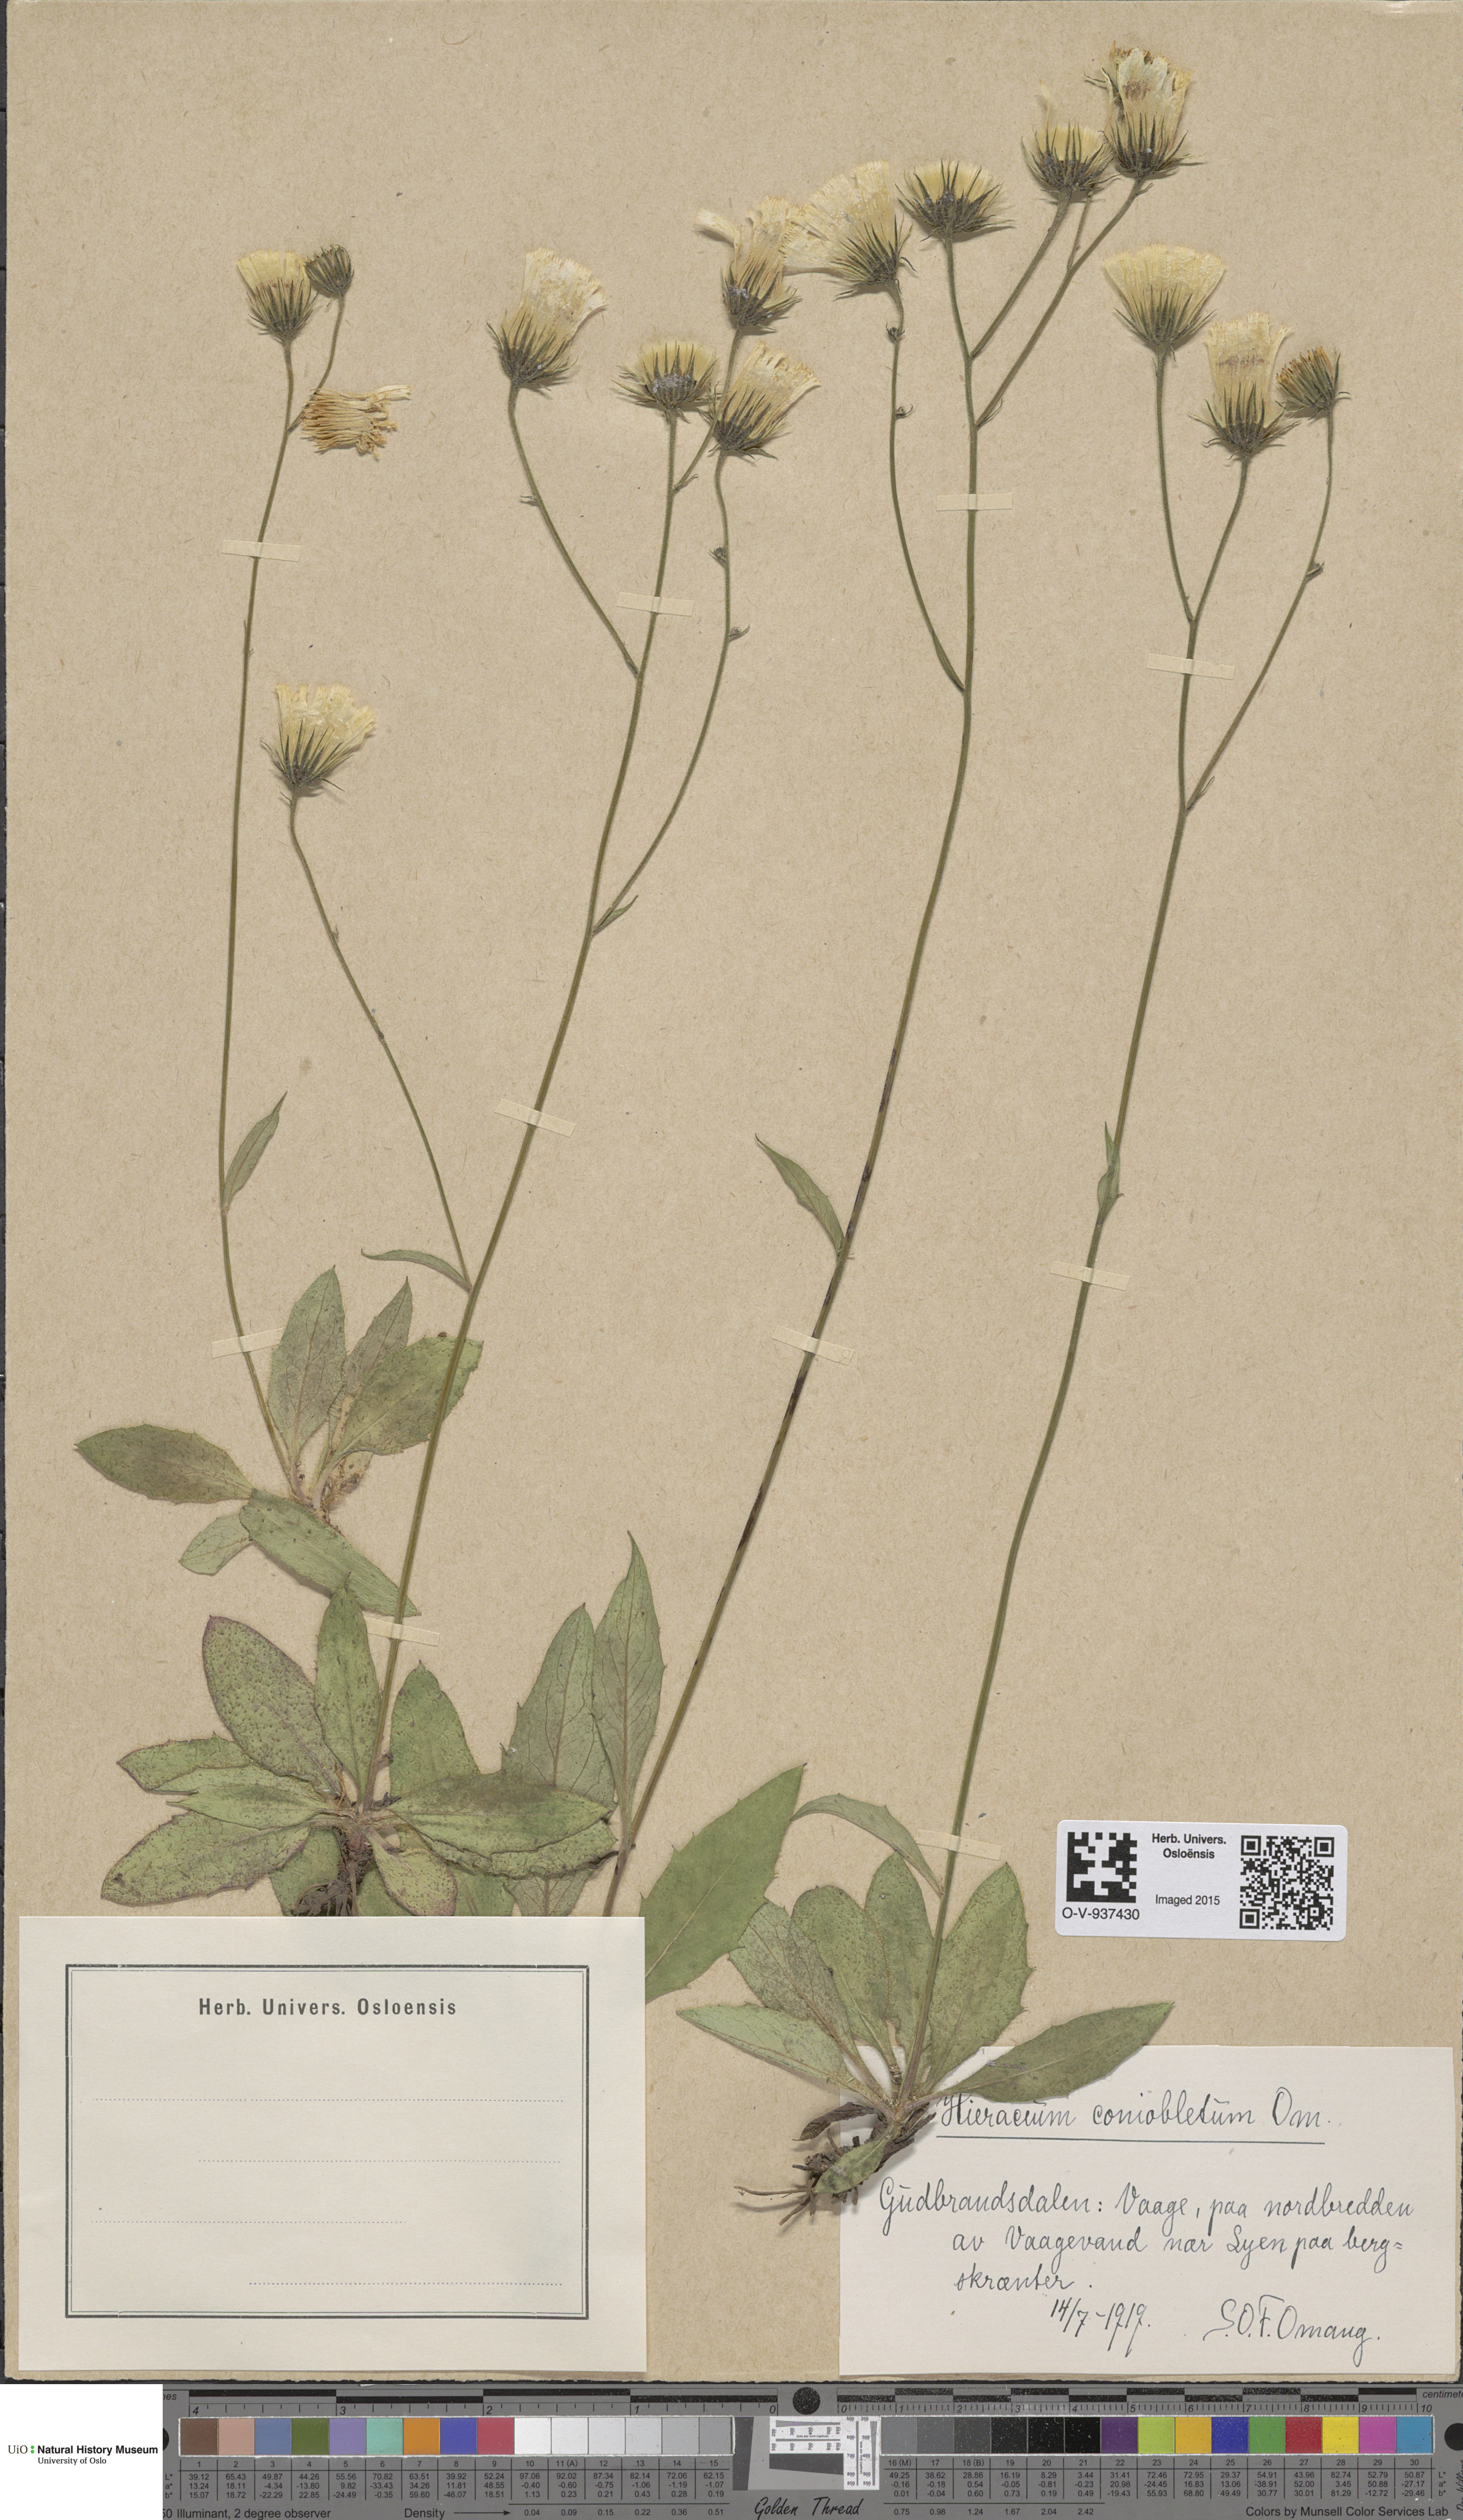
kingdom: Plantae
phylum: Tracheophyta
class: Magnoliopsida
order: Asterales
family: Asteraceae
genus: Hieracium
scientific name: Hieracium
